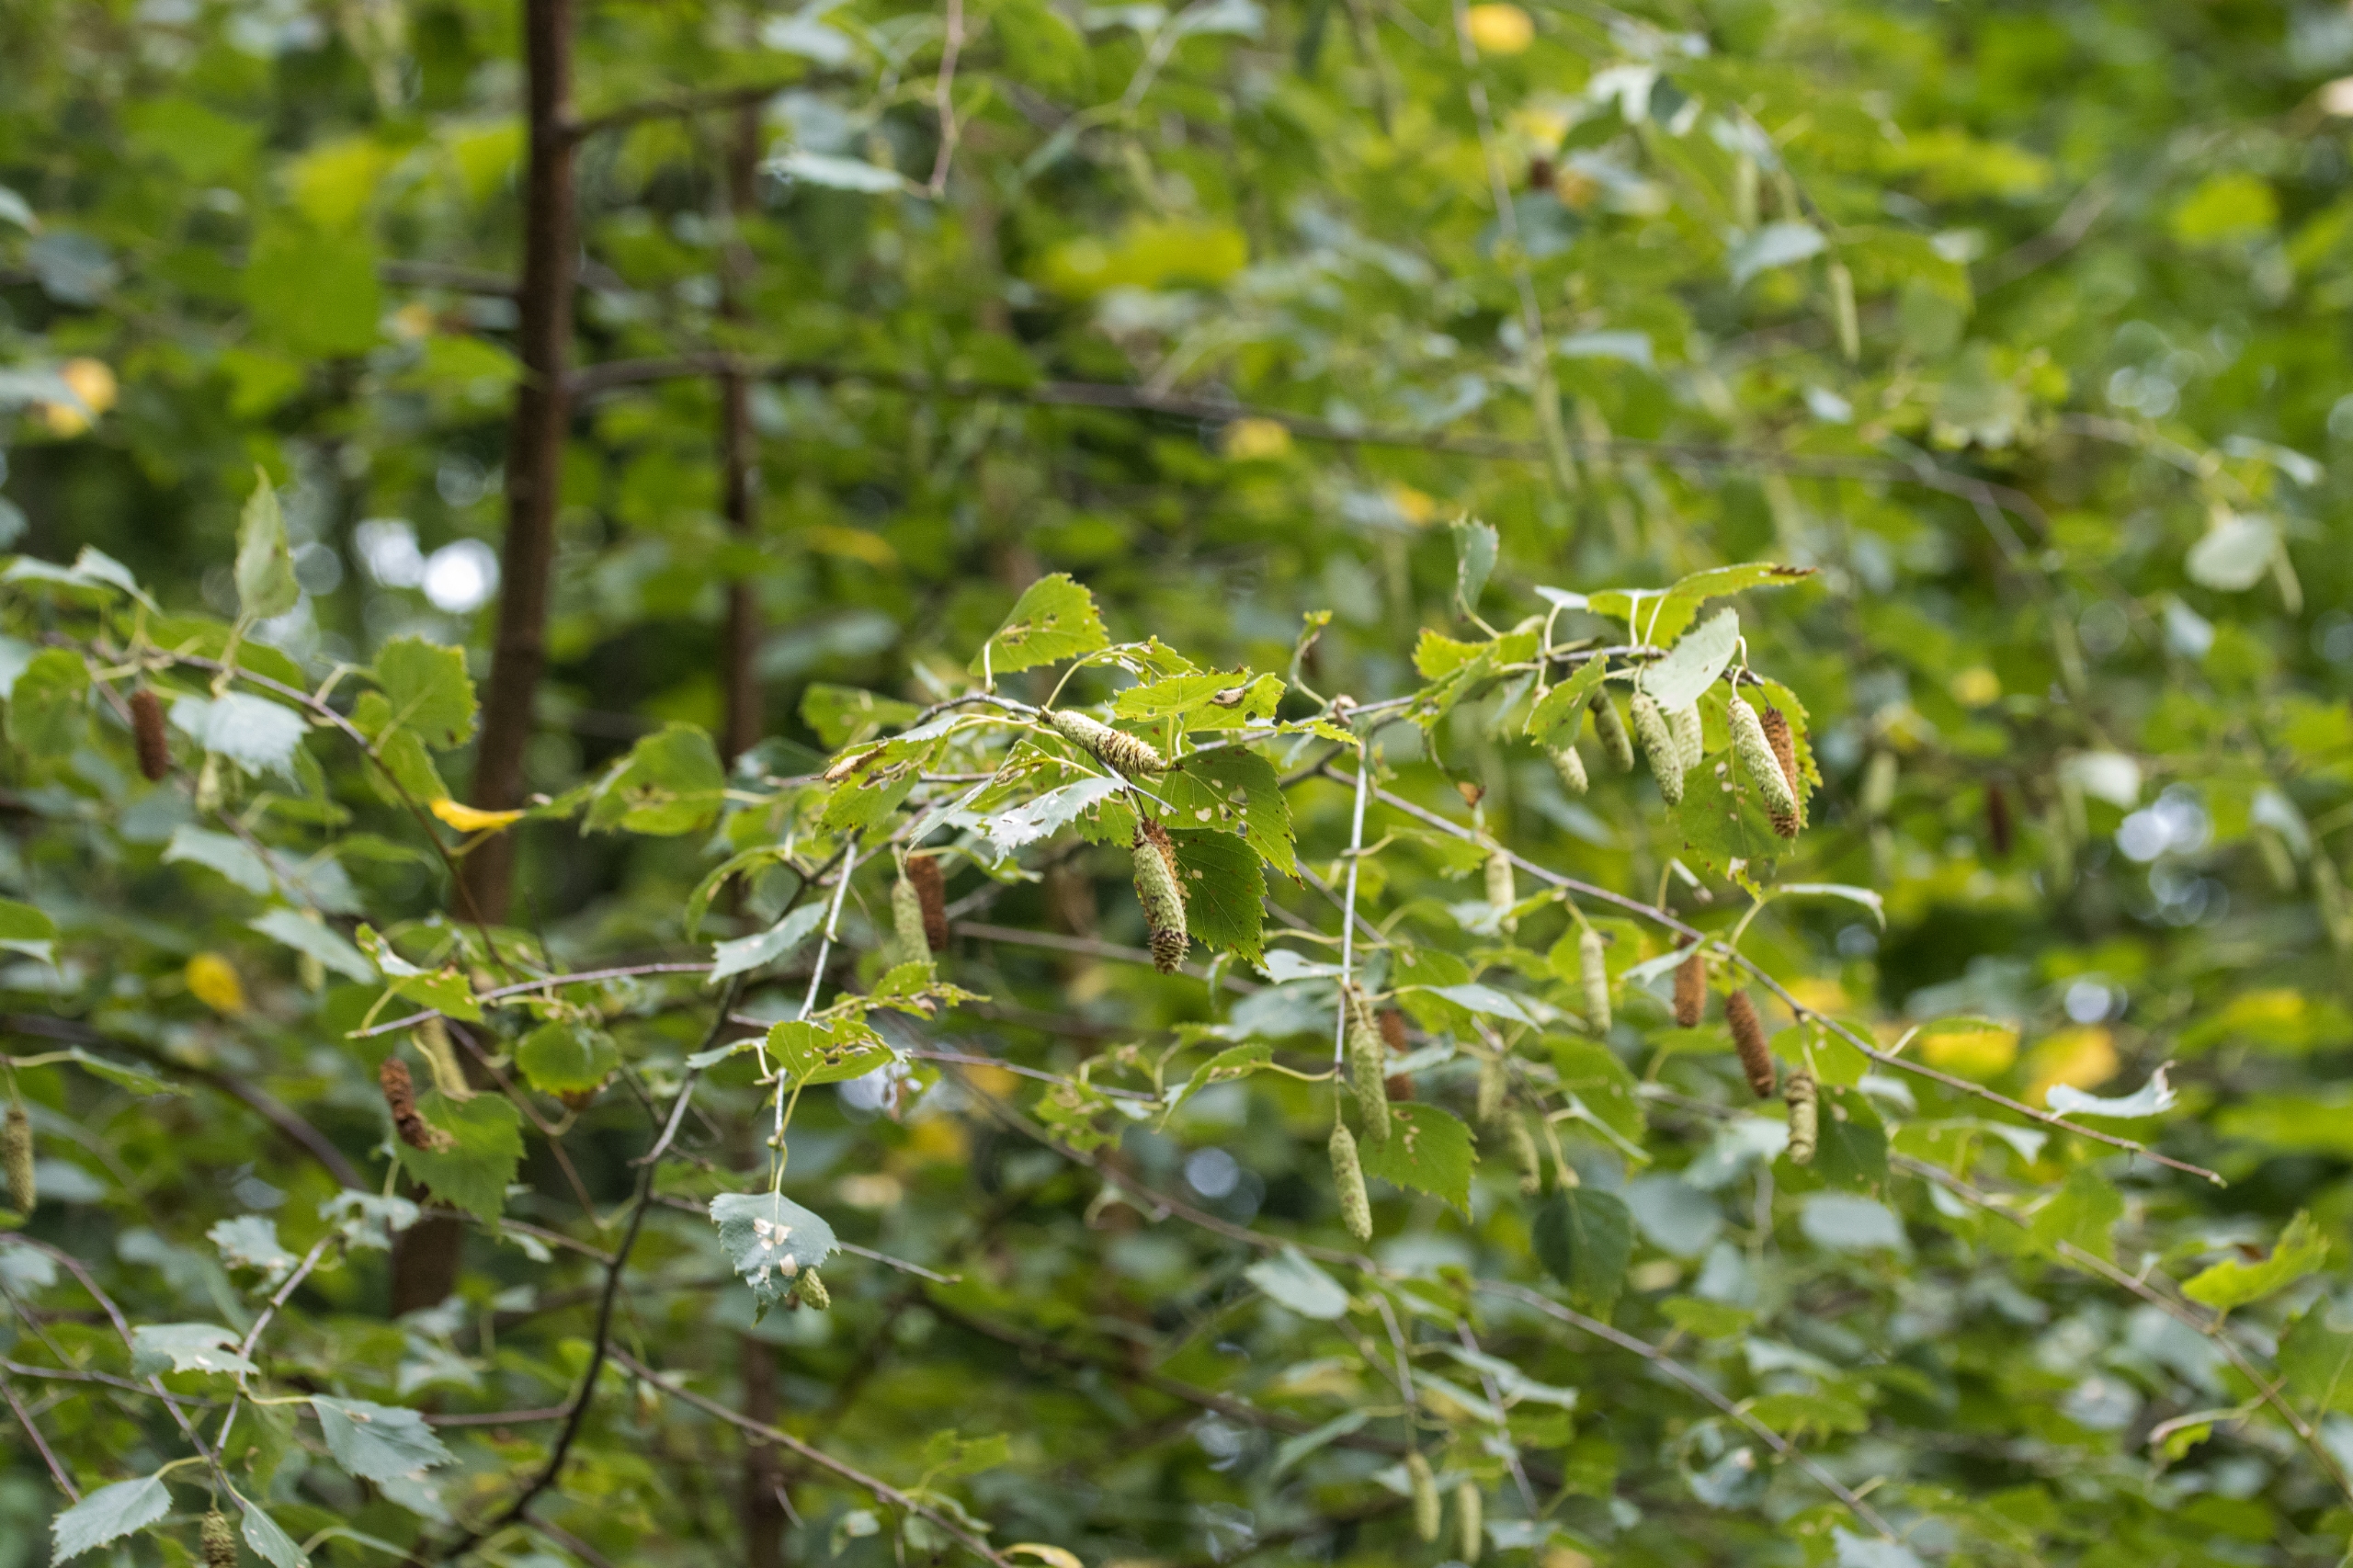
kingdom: Plantae
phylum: Tracheophyta
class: Magnoliopsida
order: Fagales
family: Betulaceae
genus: Betula
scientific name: Betula pendula
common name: Vorte-birk
